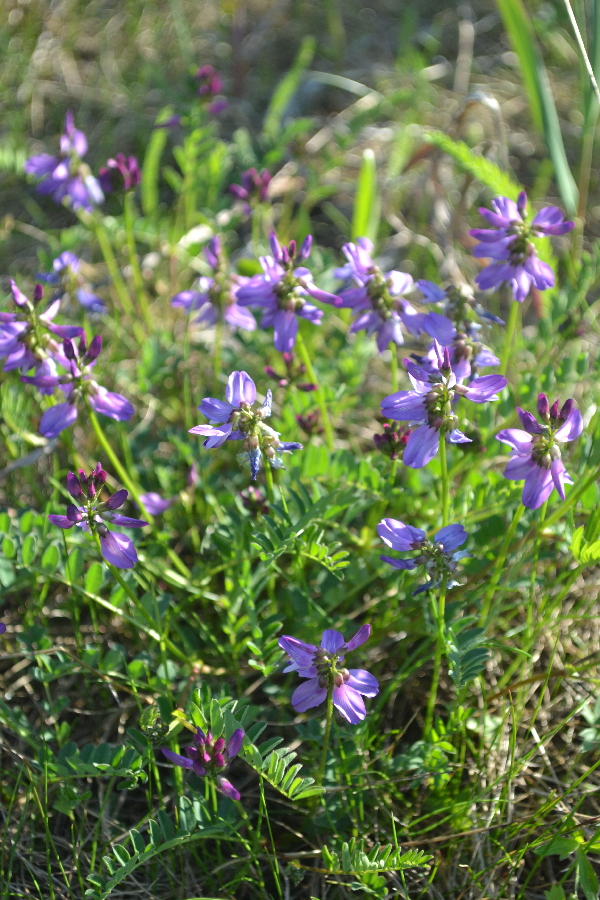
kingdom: Plantae
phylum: Tracheophyta
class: Magnoliopsida
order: Fabales
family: Fabaceae
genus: Astragalus
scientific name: Astragalus norvegicus
